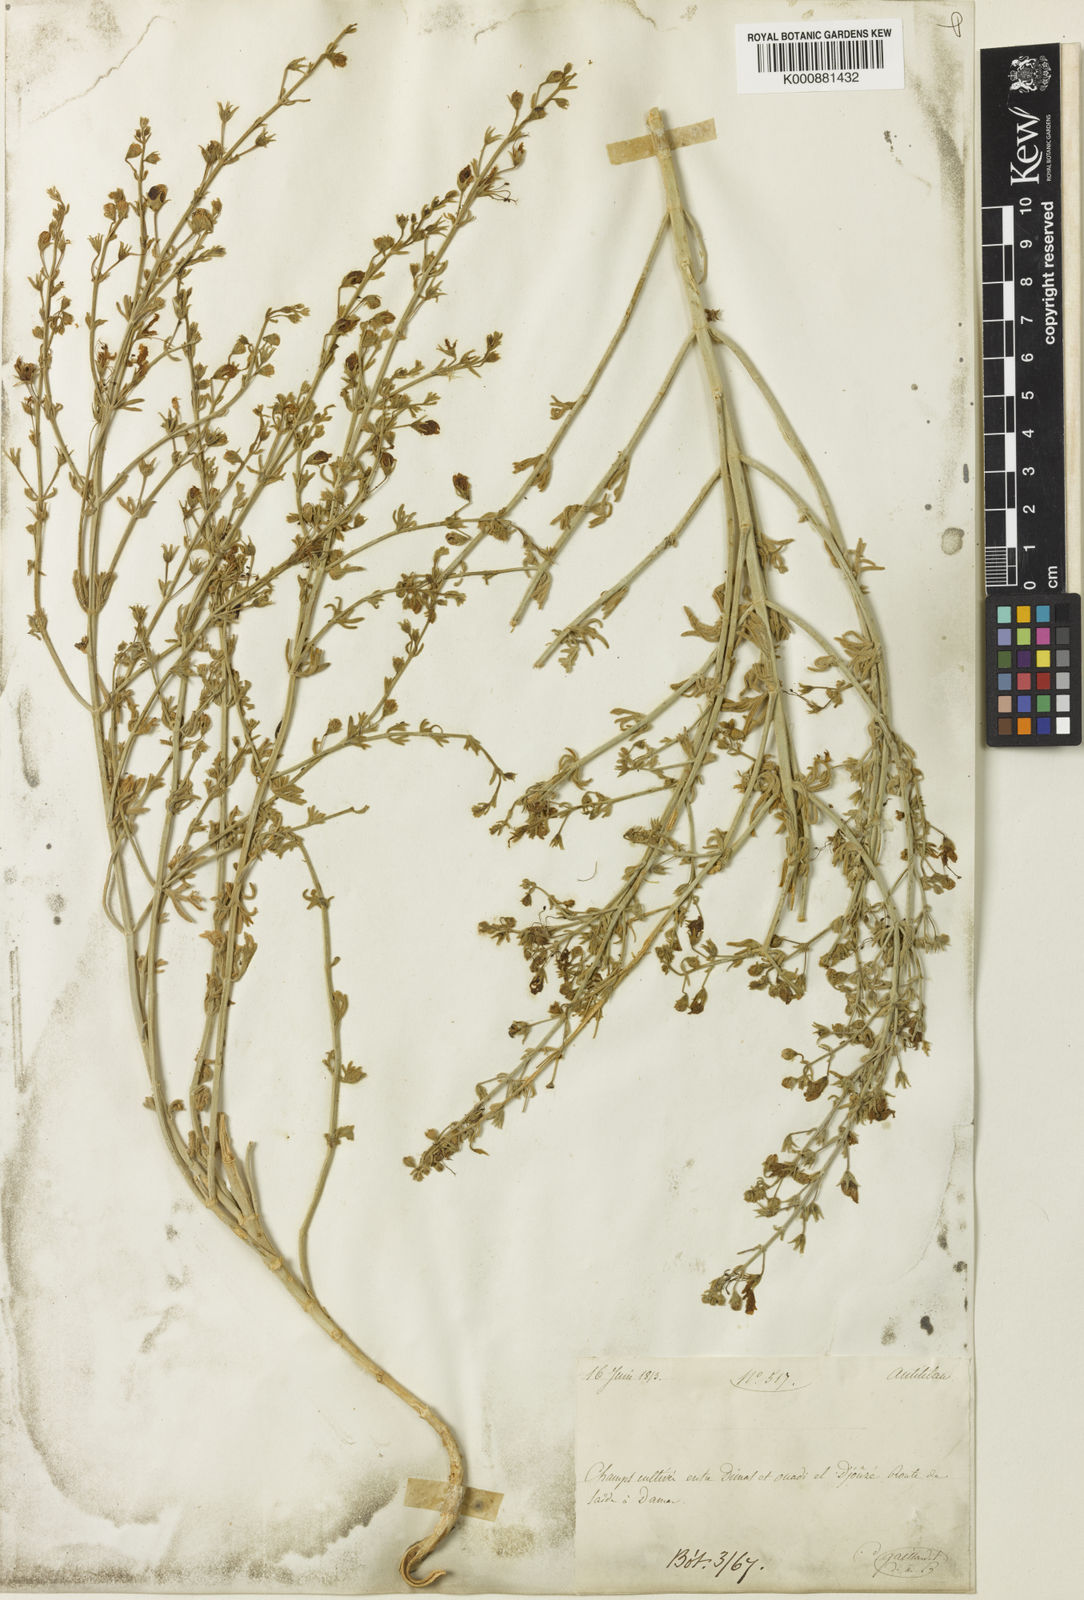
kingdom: Plantae
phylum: Tracheophyta
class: Magnoliopsida
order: Lamiales
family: Lamiaceae
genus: Teucrium
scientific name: Teucrium pruinosum
